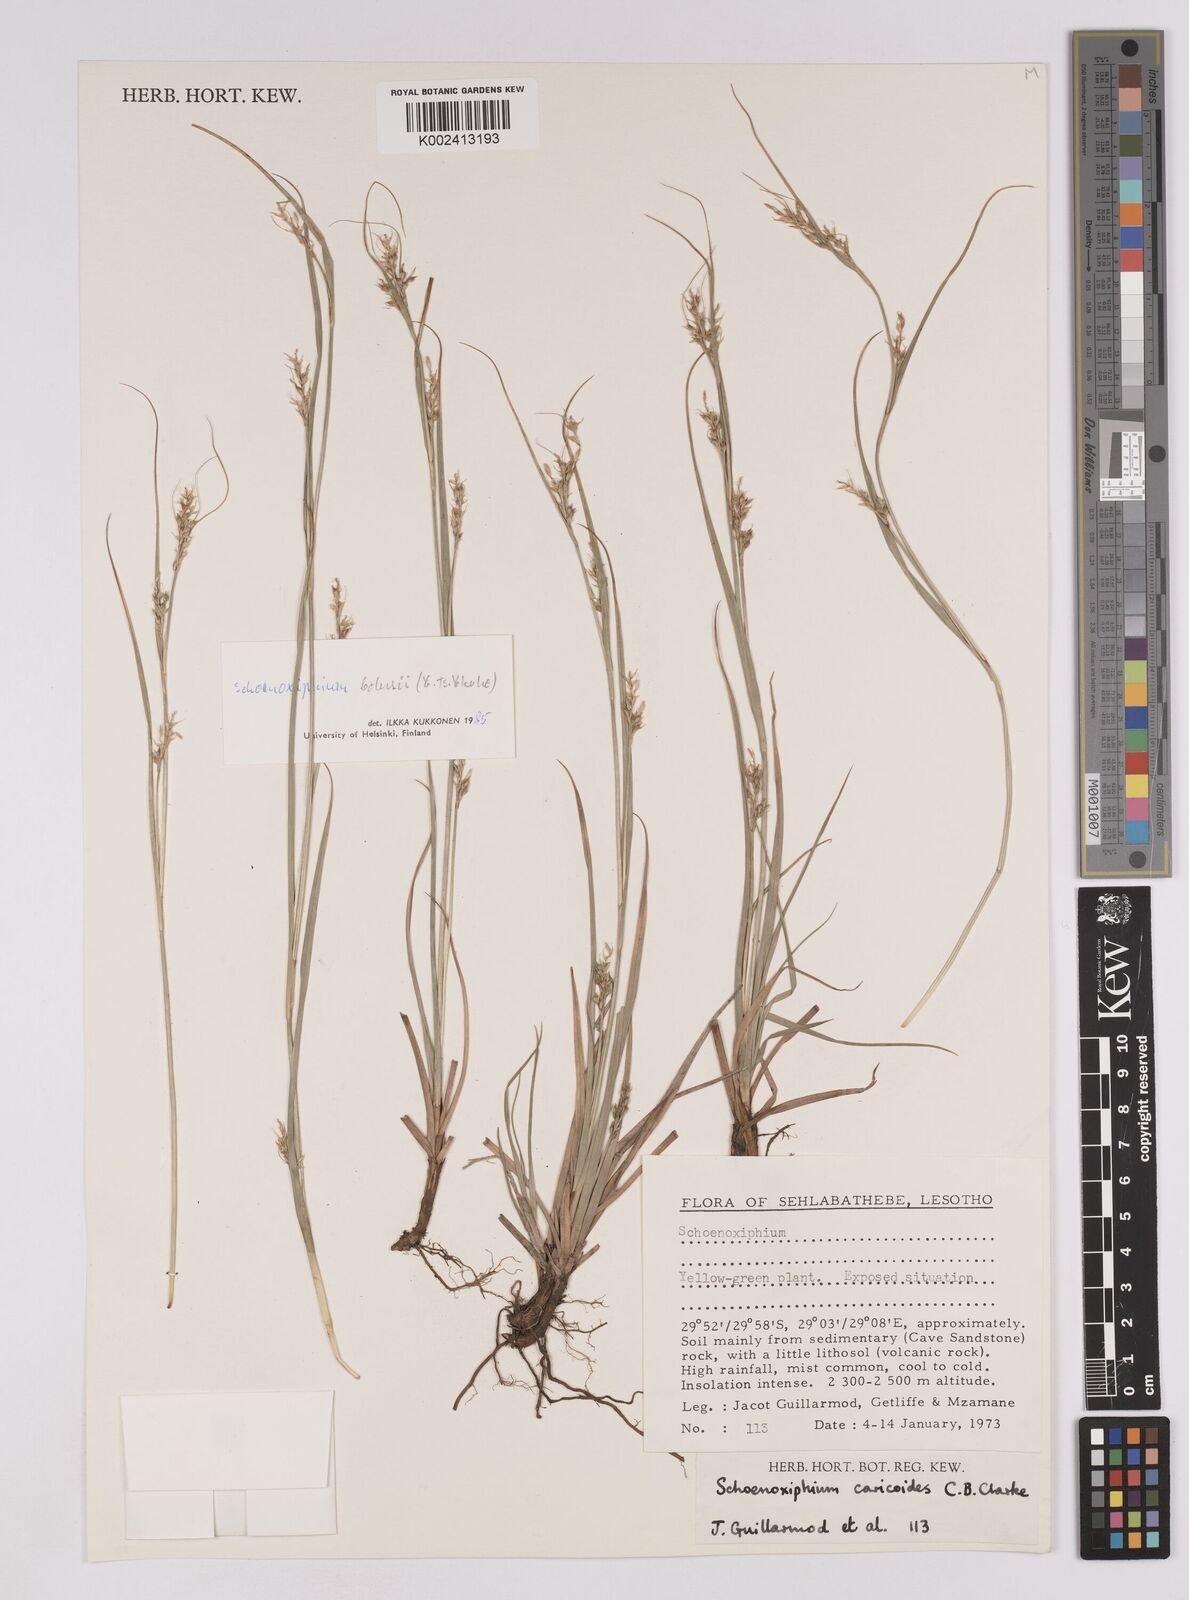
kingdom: Plantae
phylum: Tracheophyta
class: Liliopsida
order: Poales
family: Cyperaceae
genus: Carex
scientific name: Carex spartea
